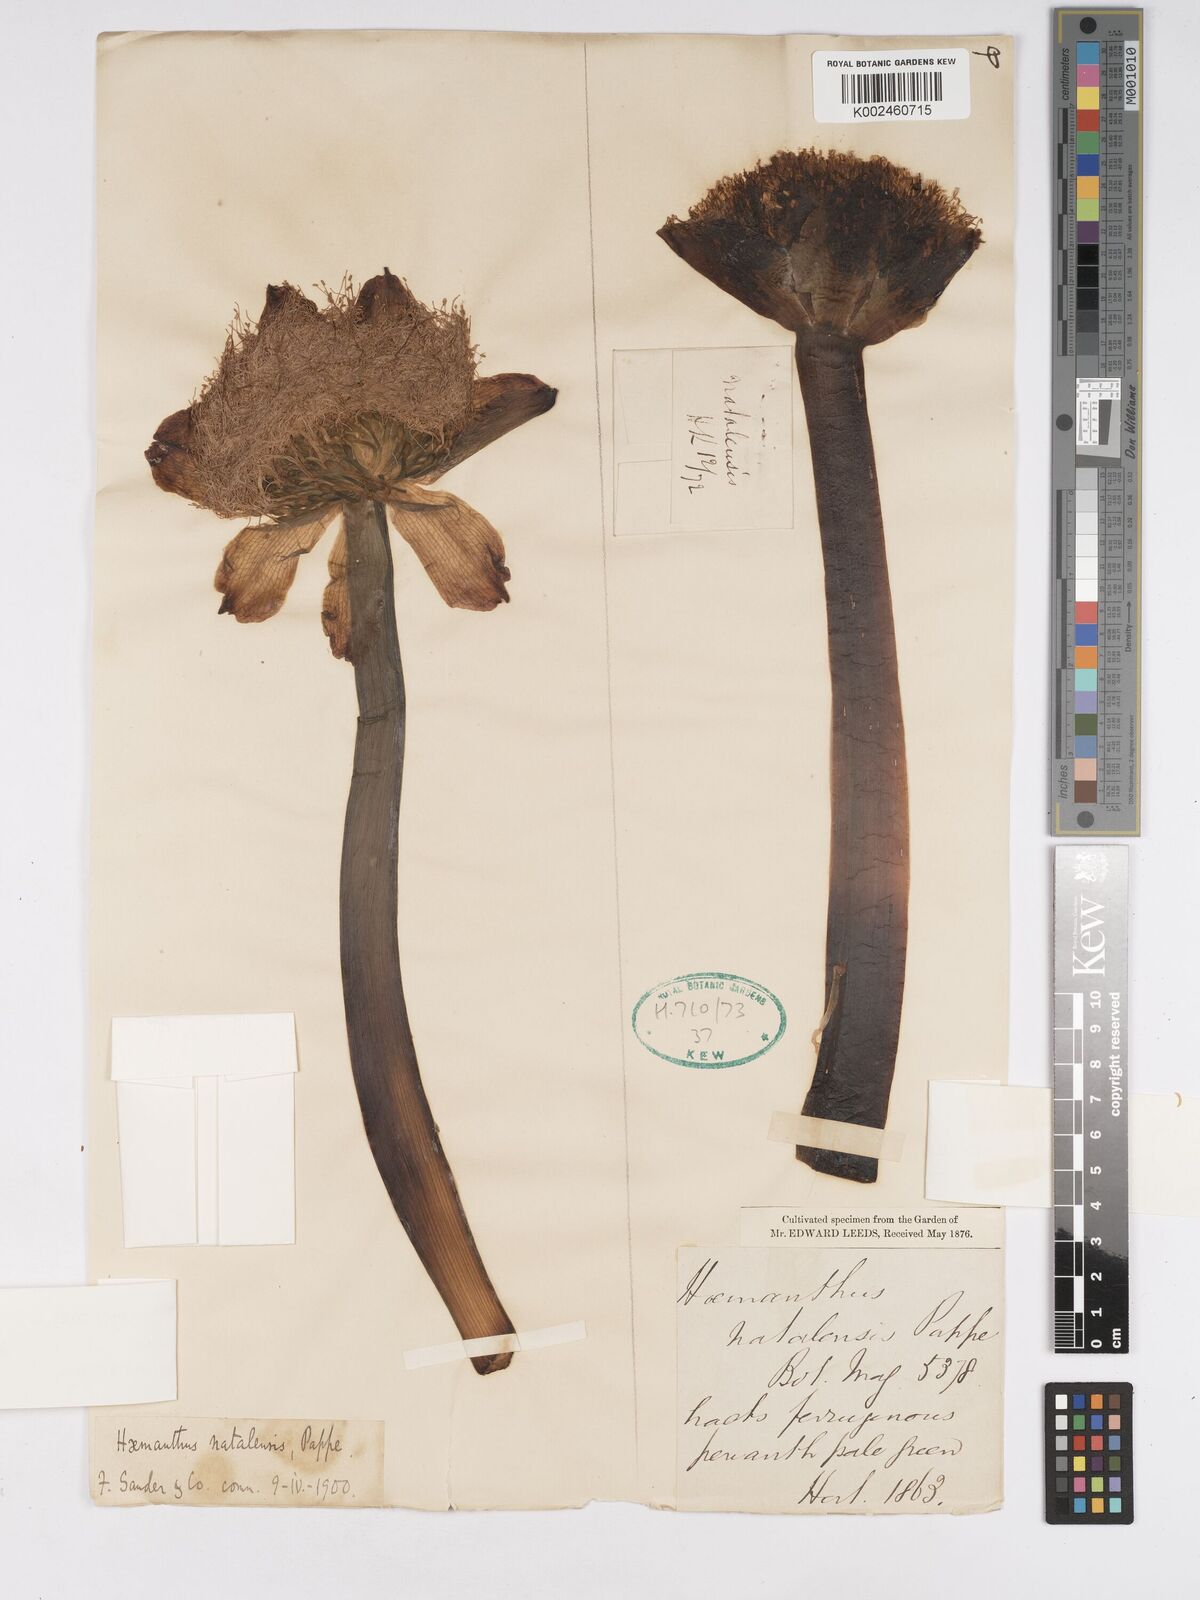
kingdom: Plantae
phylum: Tracheophyta
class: Liliopsida
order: Asparagales
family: Amaryllidaceae
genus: Scadoxus
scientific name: Scadoxus puniceus
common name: Royal-paintbrush
